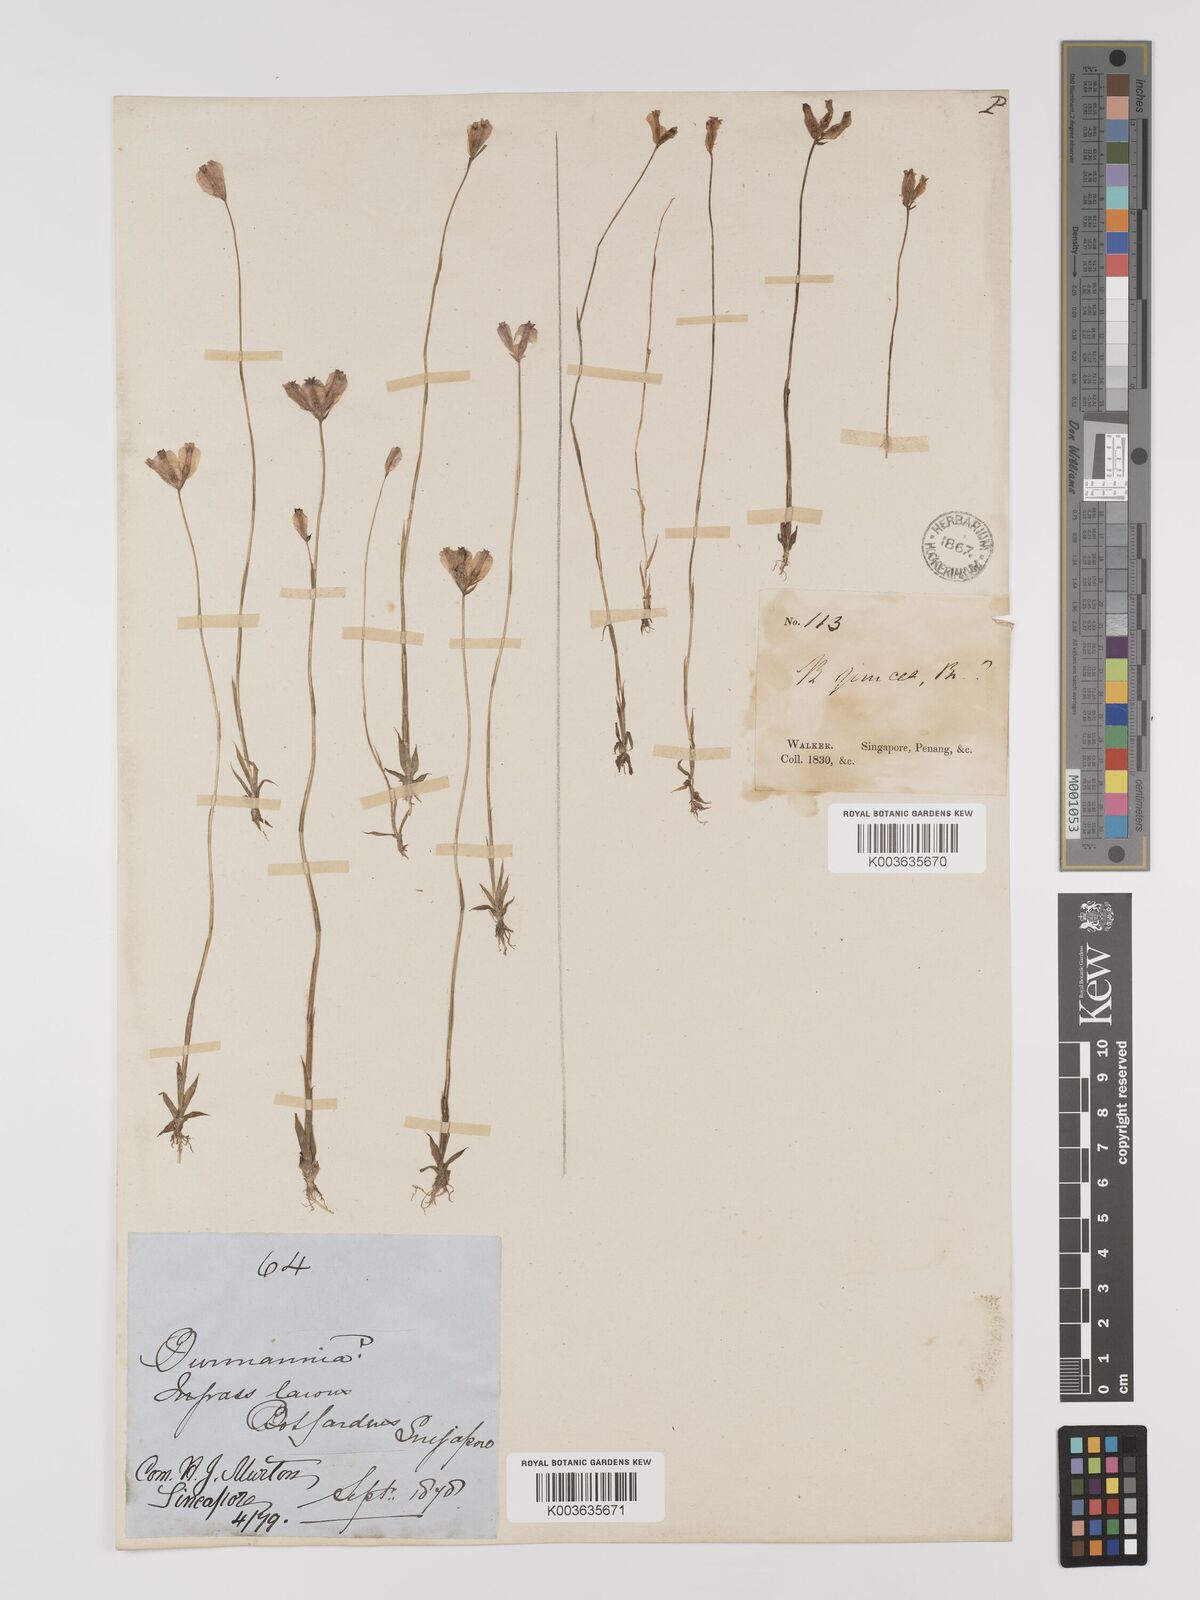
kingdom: Plantae
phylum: Tracheophyta
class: Liliopsida
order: Dioscoreales
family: Burmanniaceae
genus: Burmannia
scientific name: Burmannia coelestis
